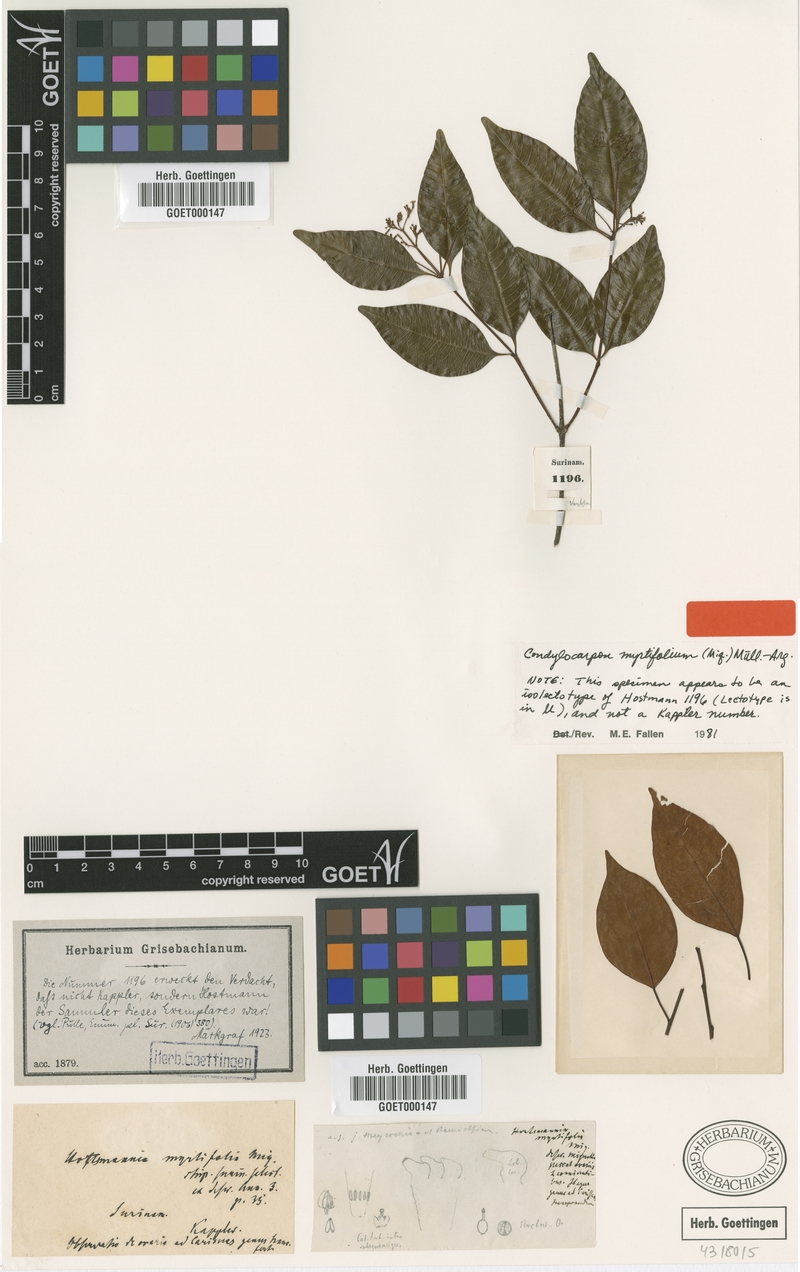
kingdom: Plantae
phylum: Tracheophyta
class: Magnoliopsida
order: Gentianales
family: Apocynaceae
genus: Condylocarpon
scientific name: Condylocarpon myrtifolium
